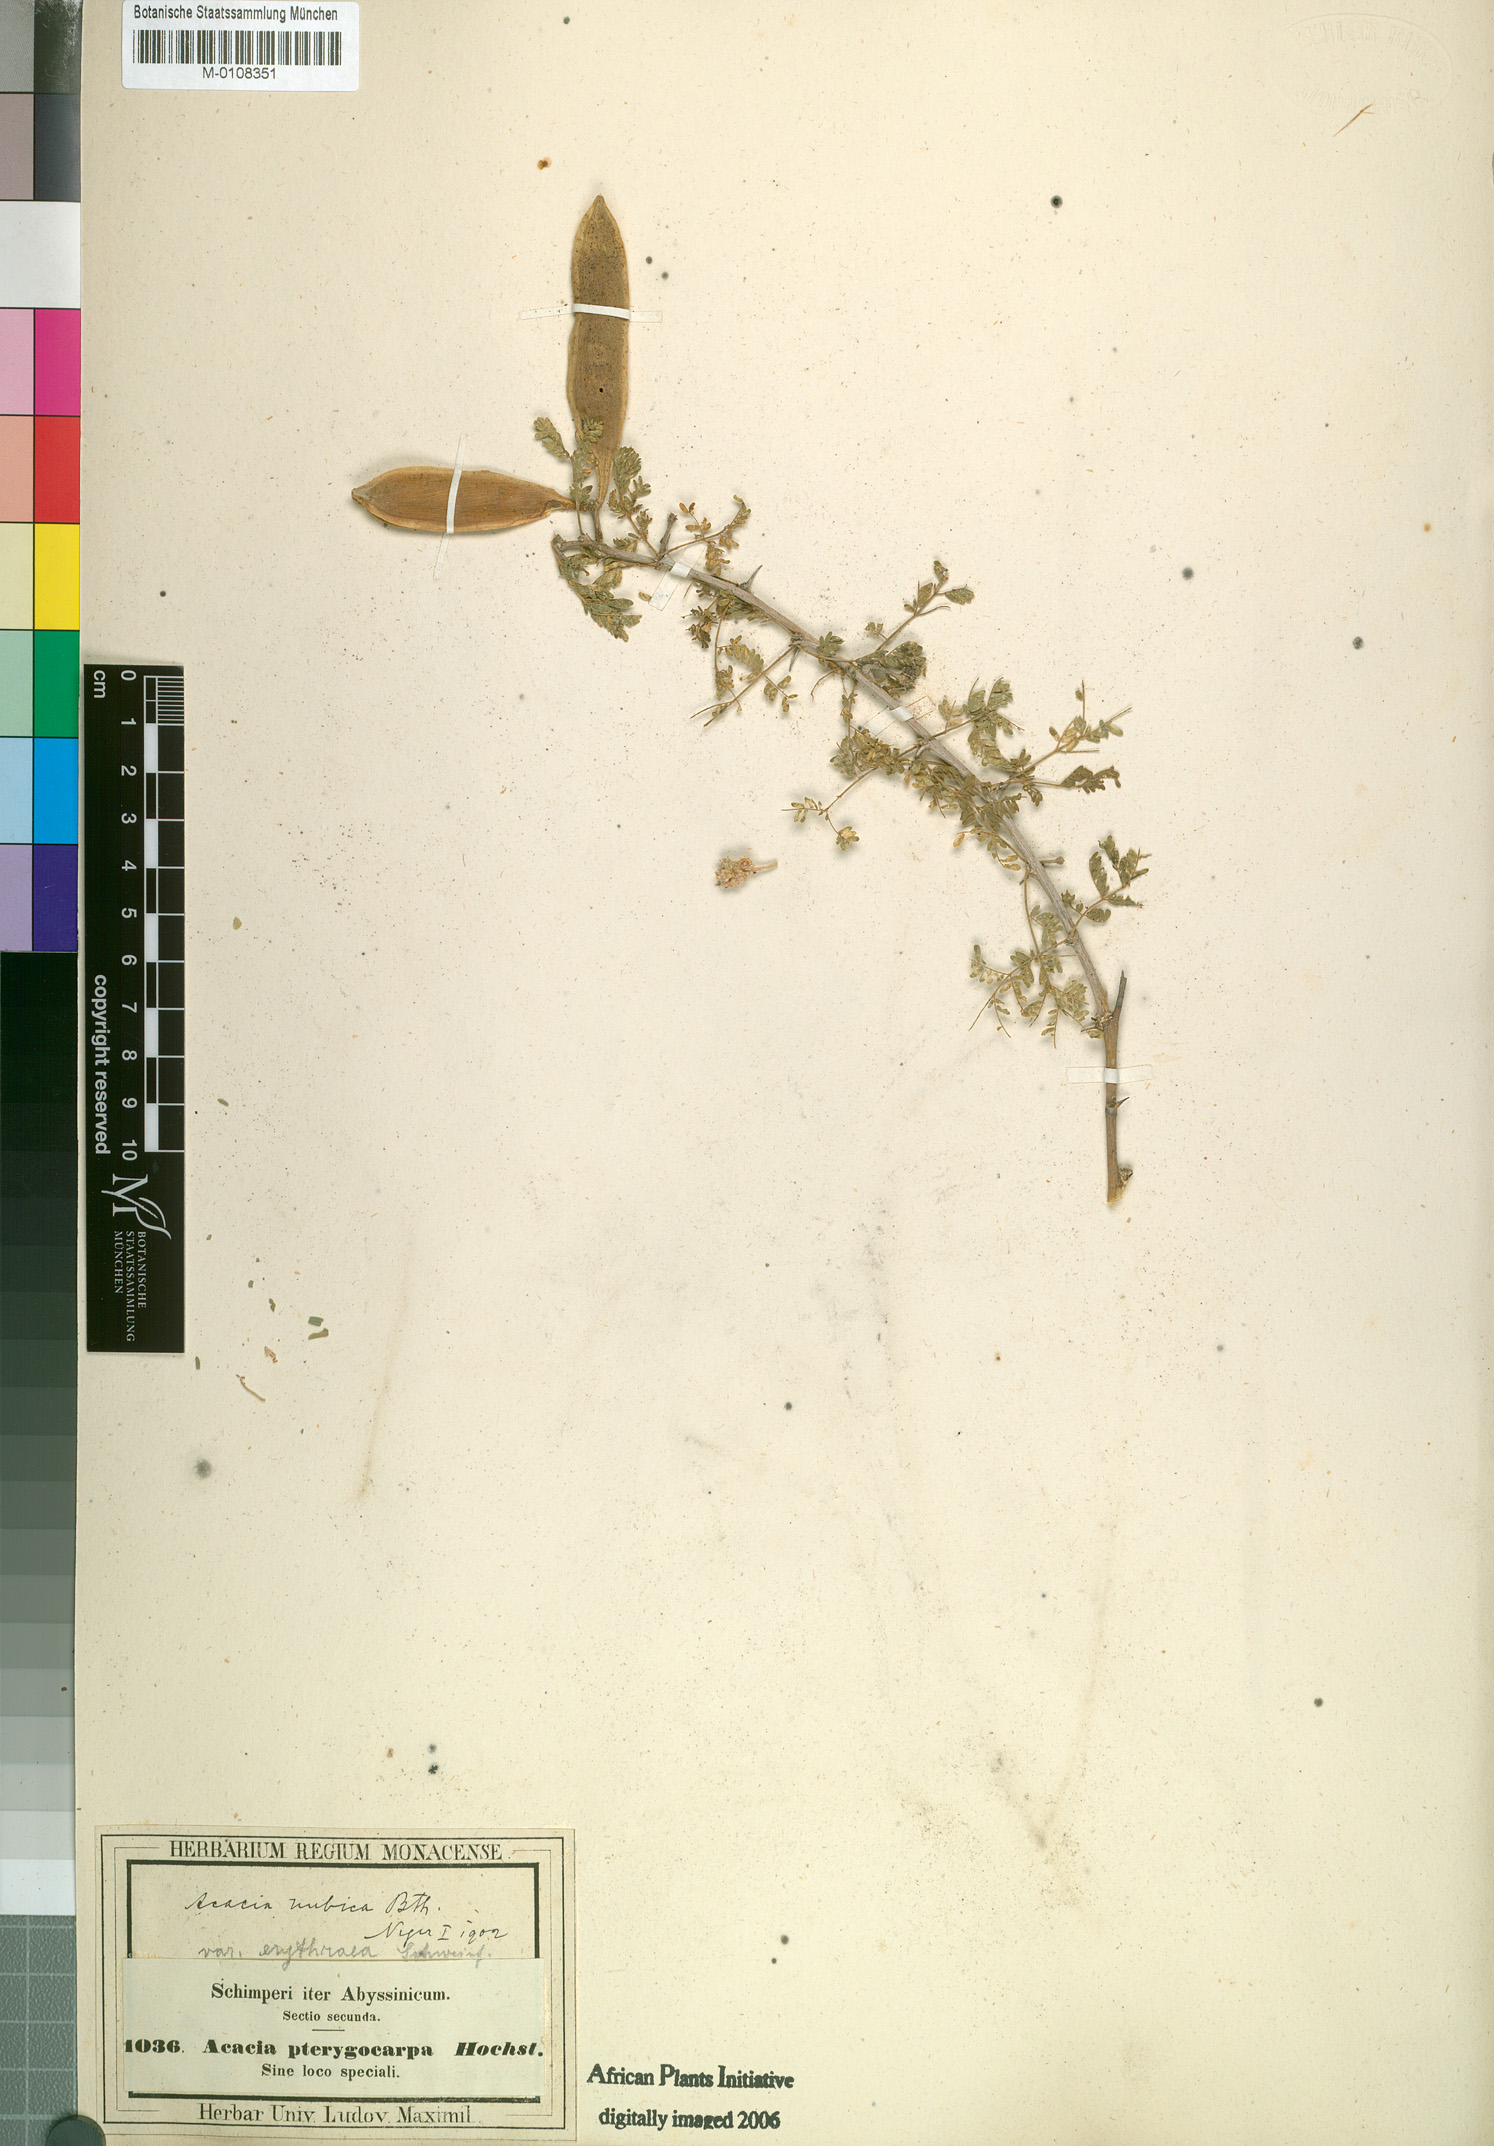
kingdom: Plantae
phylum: Tracheophyta
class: Magnoliopsida
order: Fabales
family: Fabaceae
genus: Vachellia
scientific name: Vachellia oerfota
